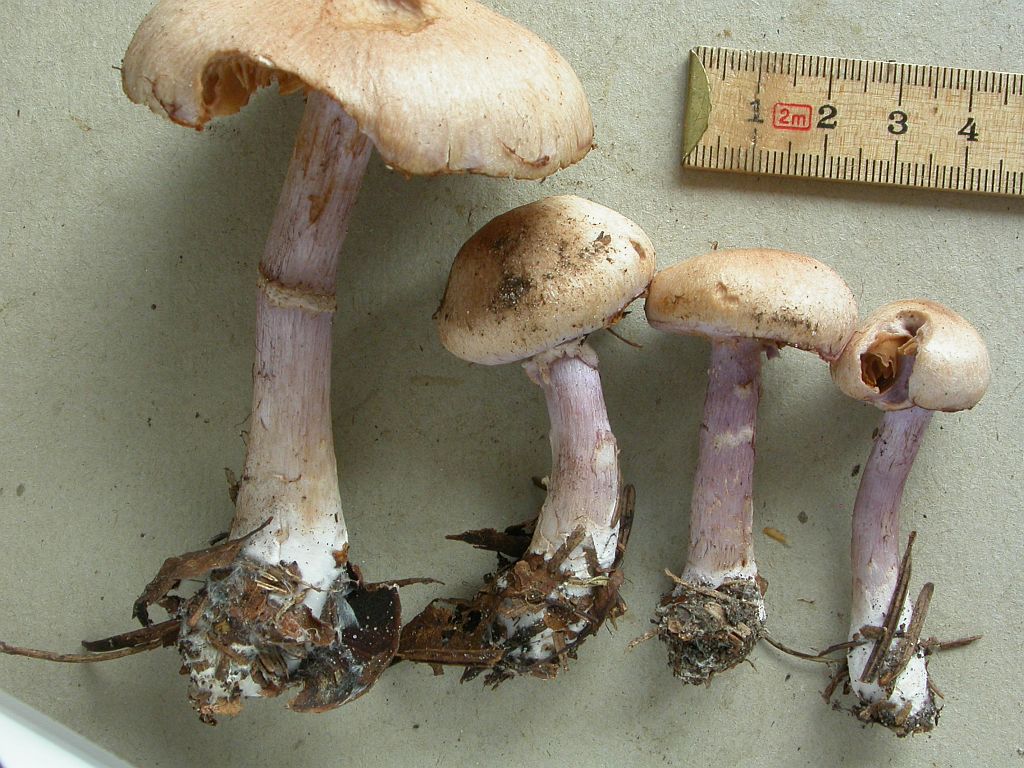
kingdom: Fungi
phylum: Basidiomycota
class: Agaricomycetes
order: Agaricales
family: Cortinariaceae
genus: Cortinarius
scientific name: Cortinarius venustus
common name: violetstokket slørhat
